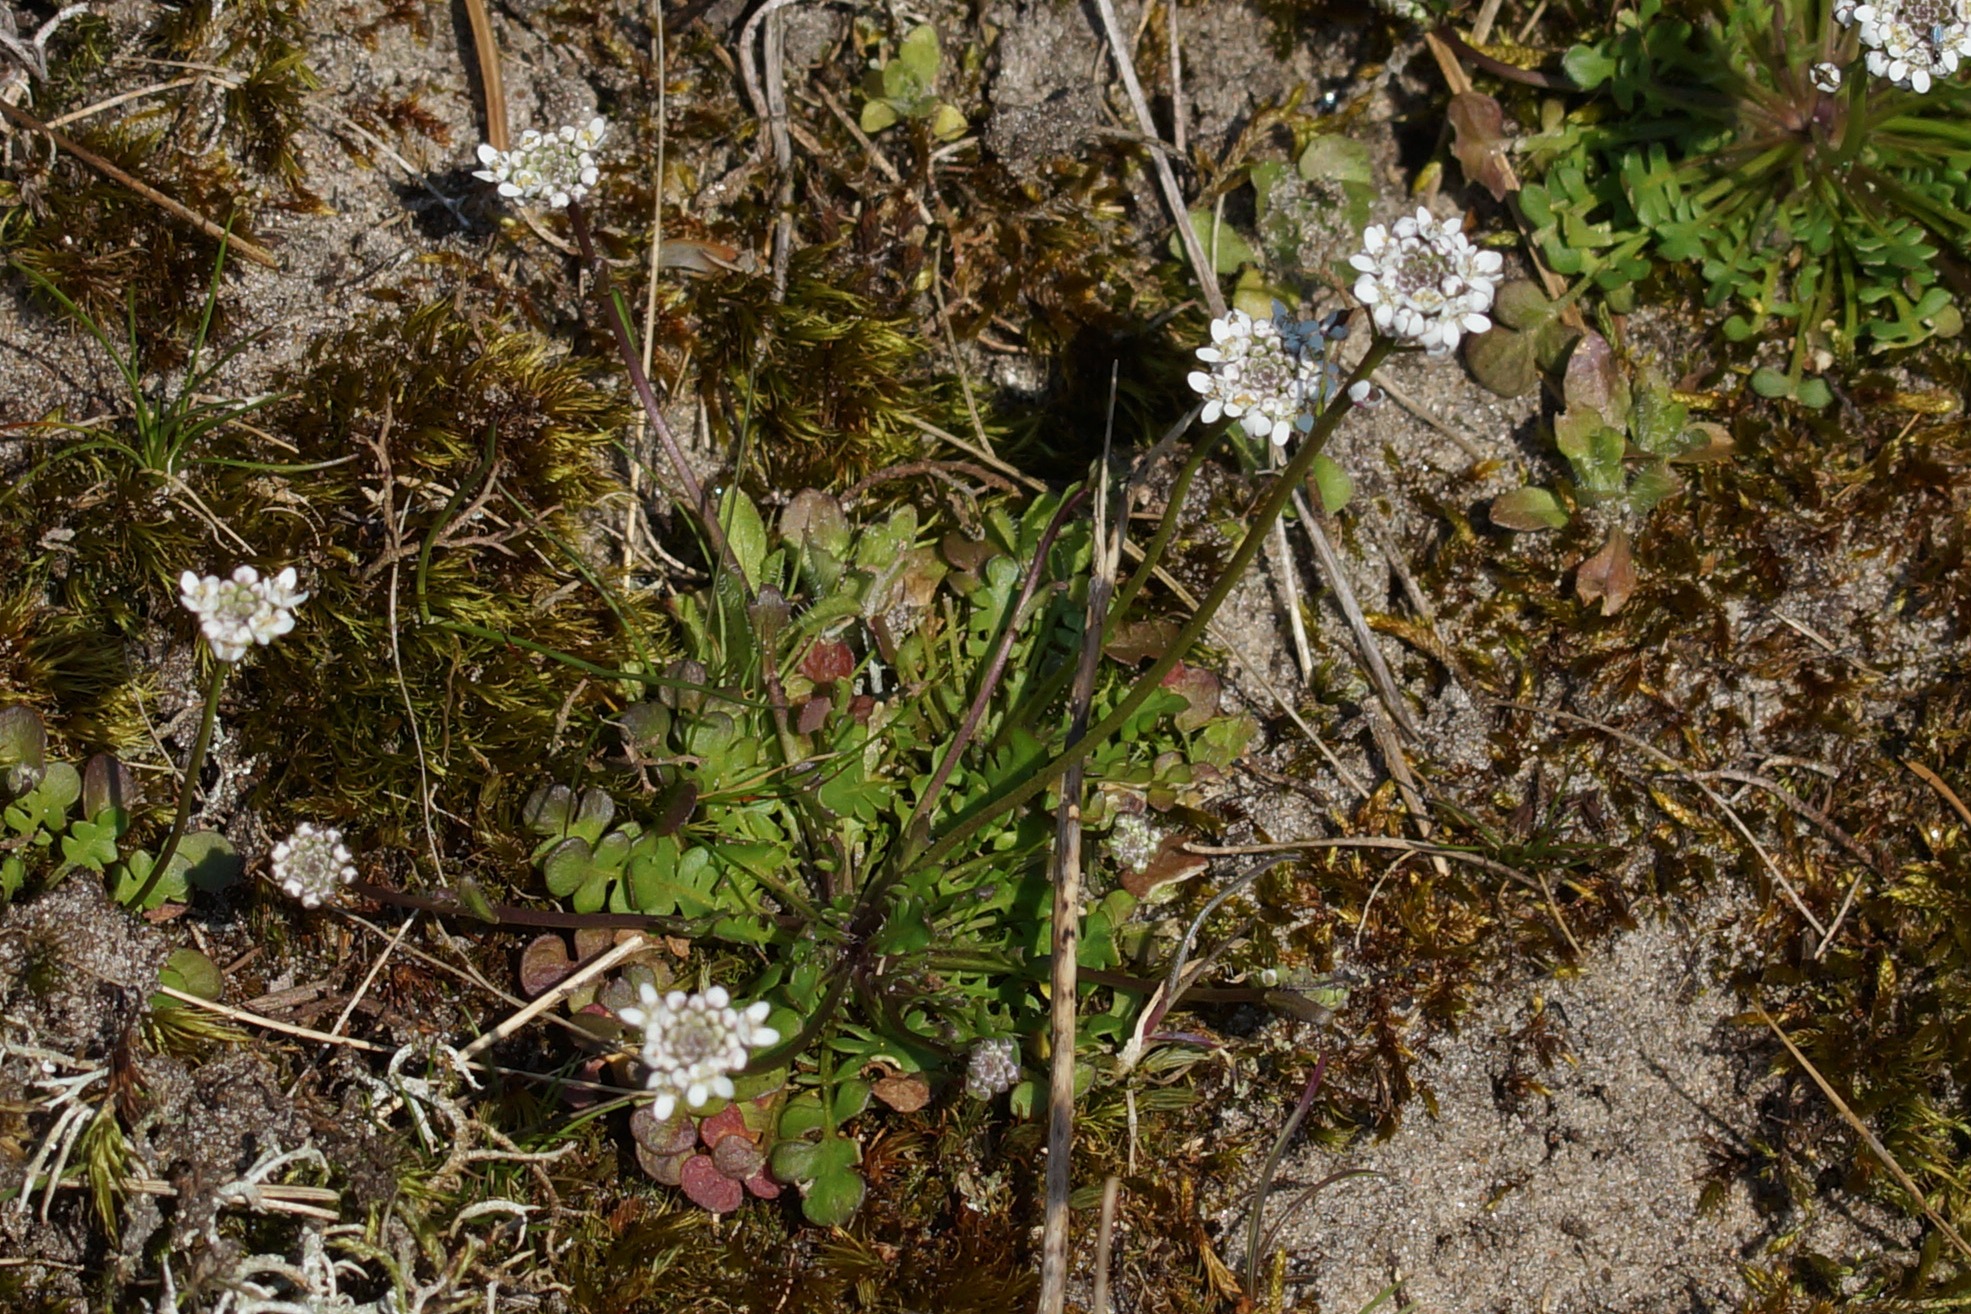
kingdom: Plantae
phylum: Tracheophyta
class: Magnoliopsida
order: Brassicales
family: Brassicaceae
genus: Teesdalia
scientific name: Teesdalia nudicaulis
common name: Flipkrave
